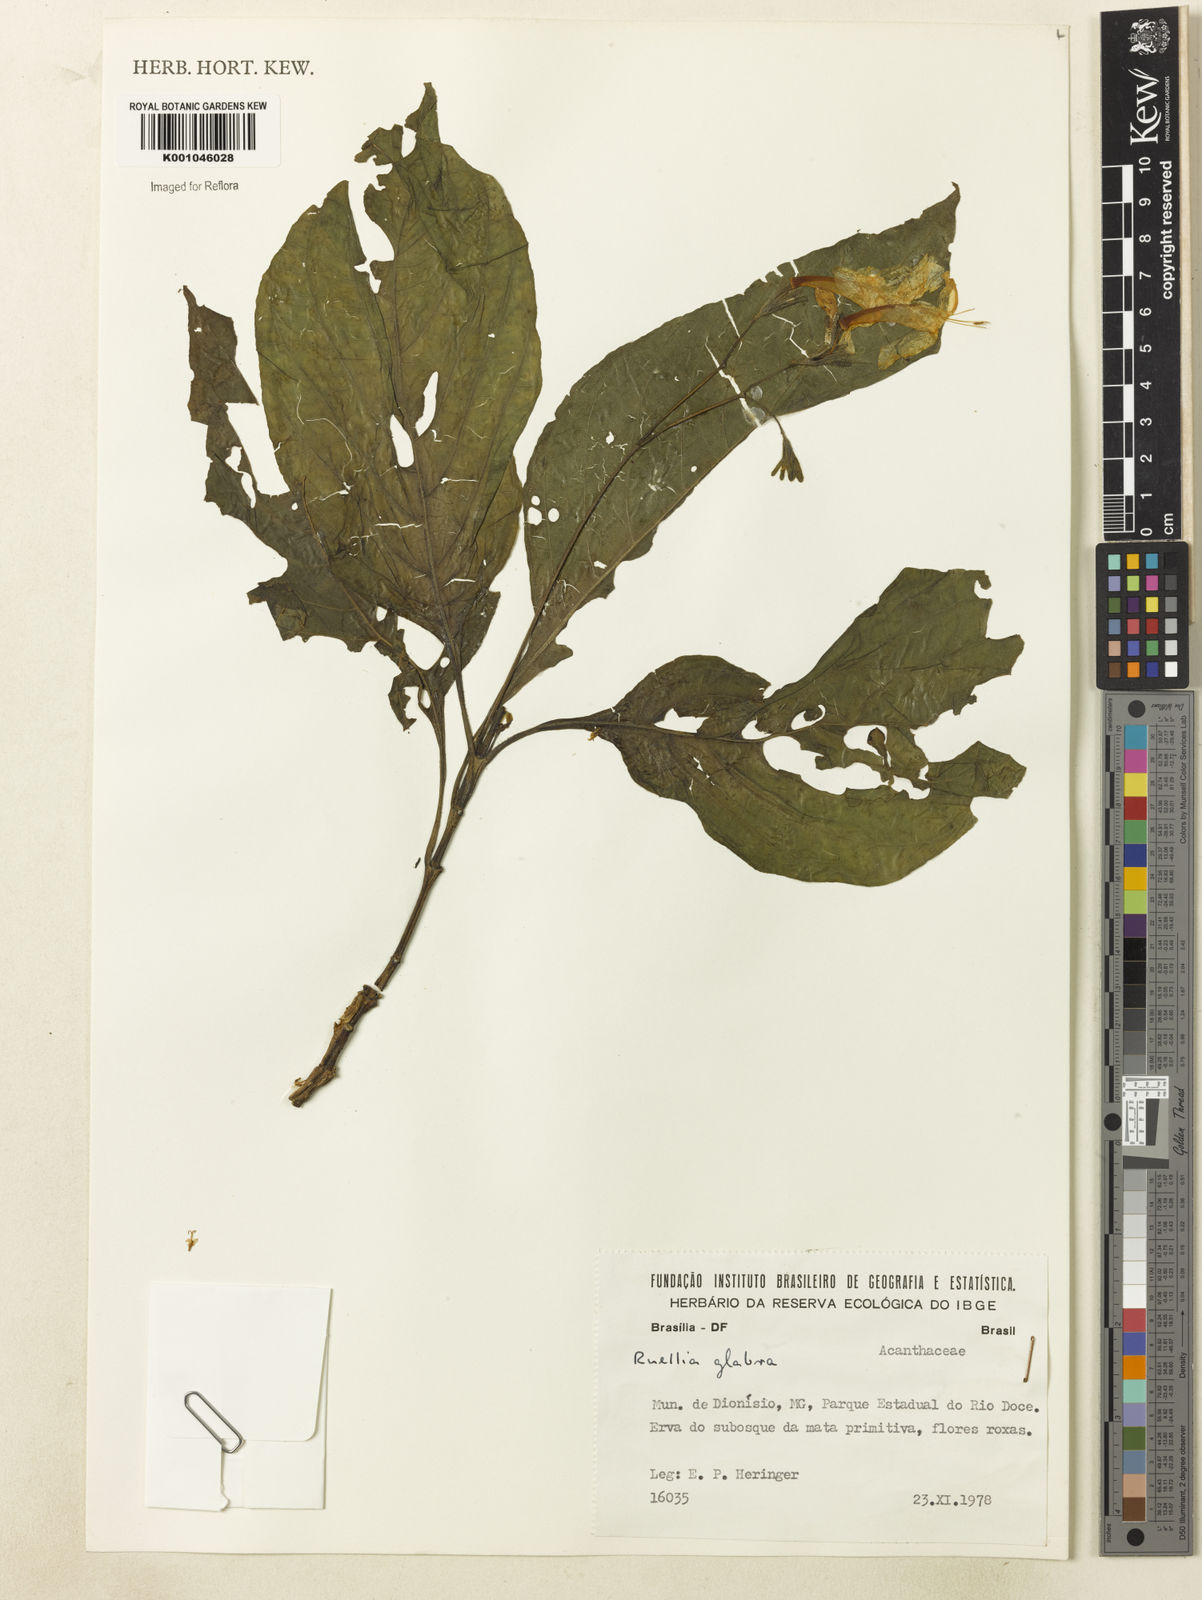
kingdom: Plantae
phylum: Tracheophyta
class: Magnoliopsida
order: Lamiales
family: Acanthaceae
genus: Ruellia
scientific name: Ruellia
